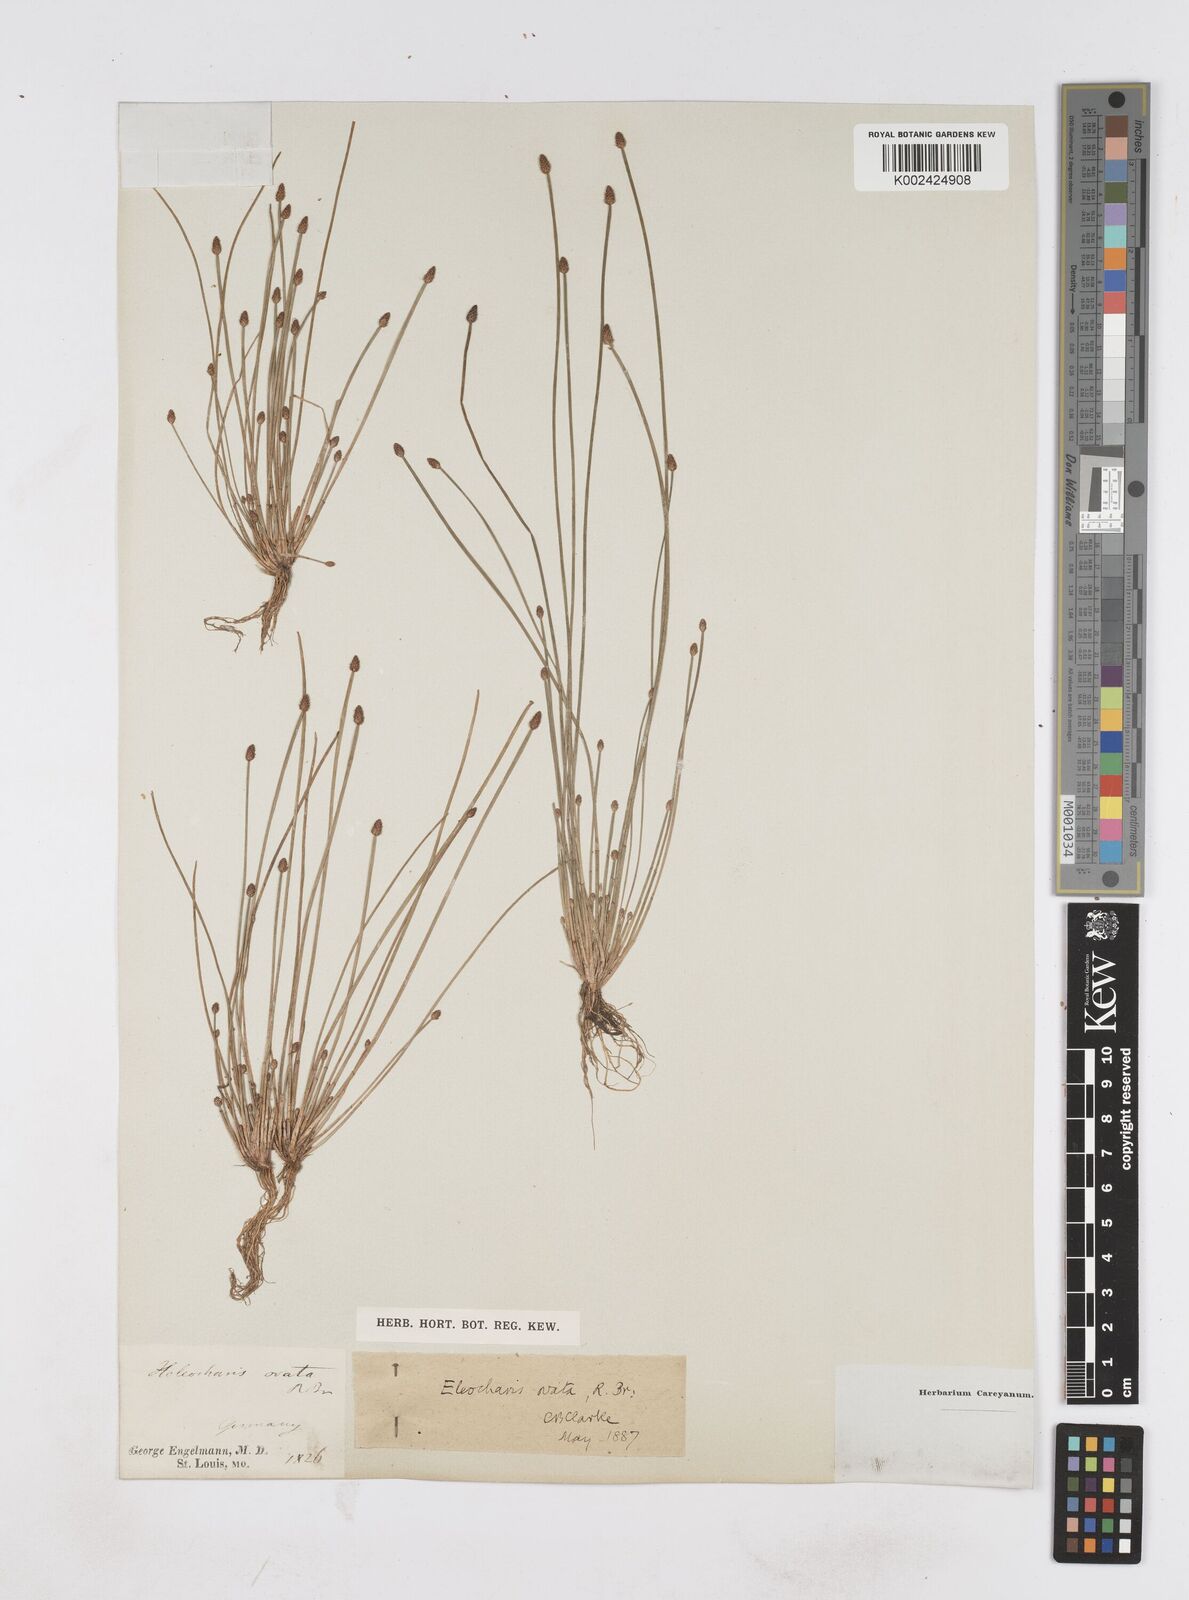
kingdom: Plantae
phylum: Tracheophyta
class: Liliopsida
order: Poales
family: Cyperaceae
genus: Eleocharis
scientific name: Eleocharis ovata
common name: Oval spike-rush
